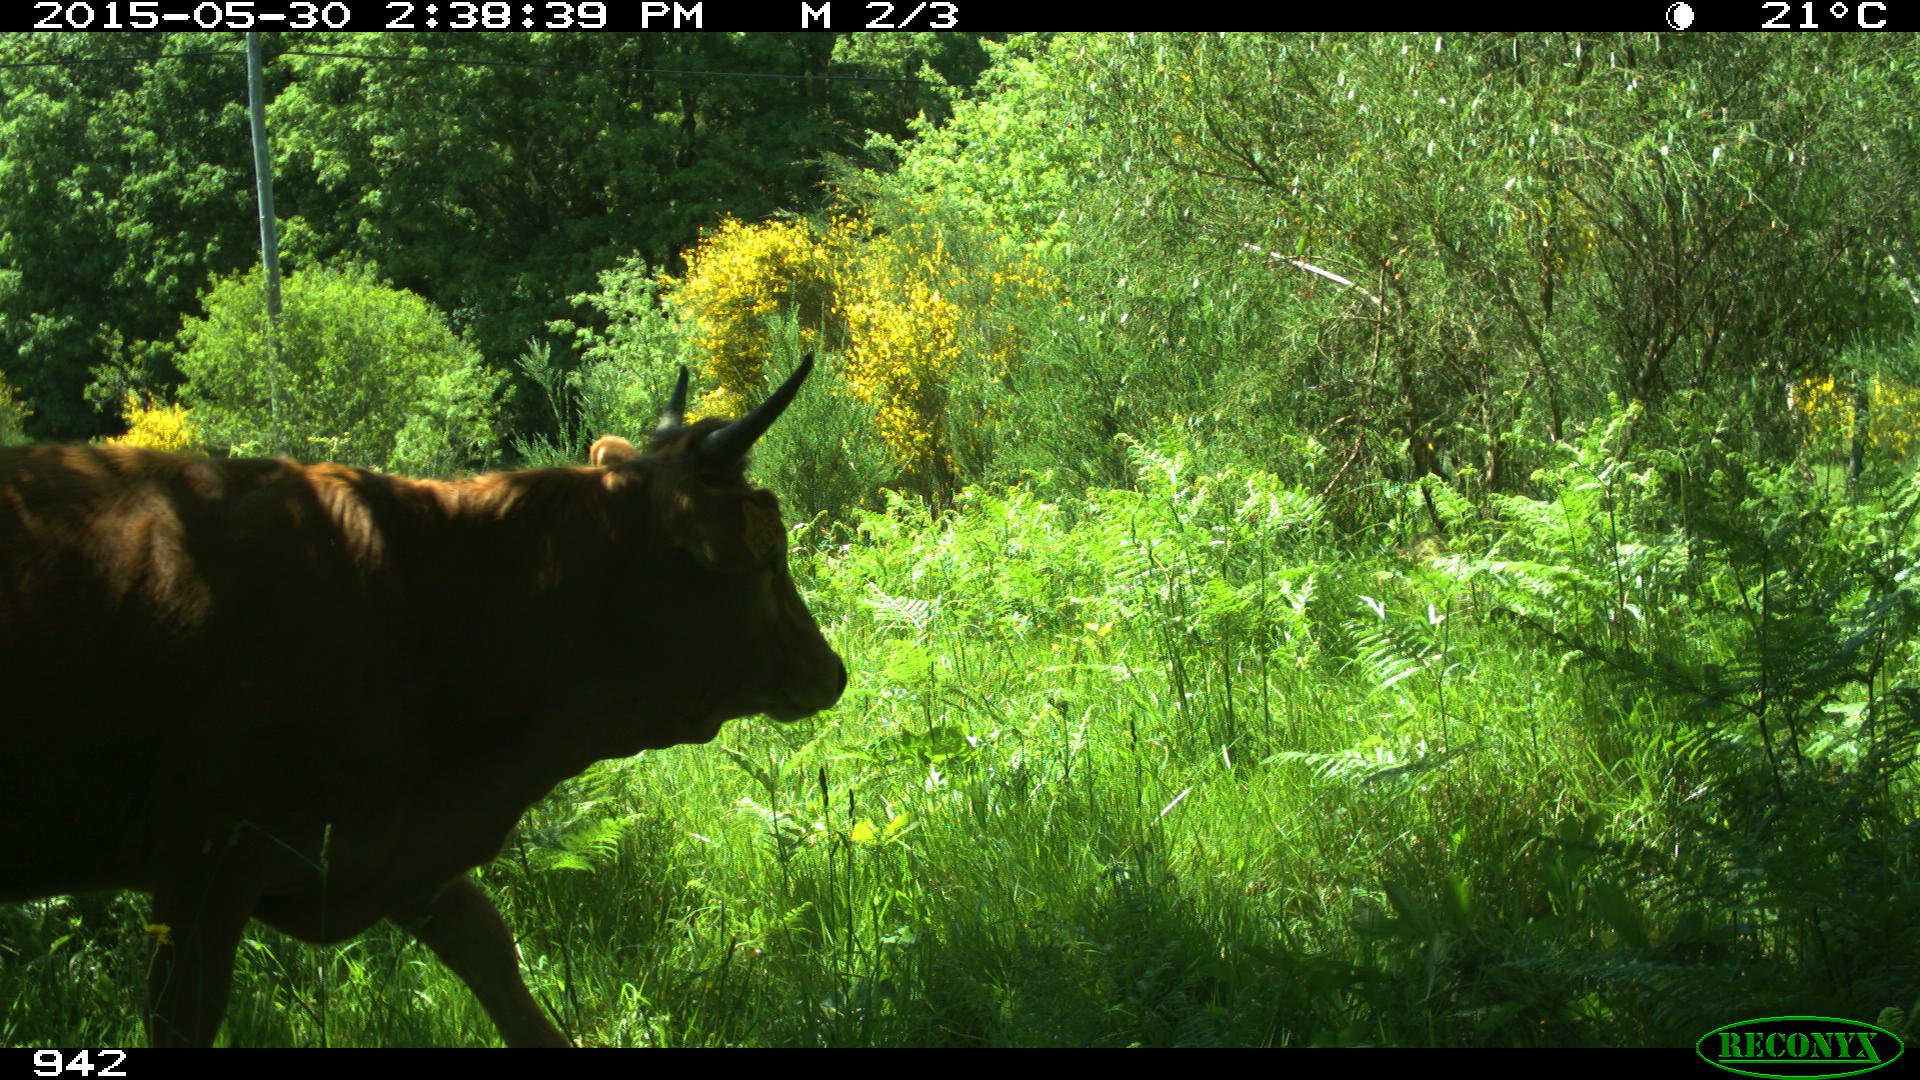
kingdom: Animalia
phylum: Chordata
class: Mammalia
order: Artiodactyla
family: Bovidae
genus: Bos
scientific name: Bos taurus
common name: Domesticated cattle
